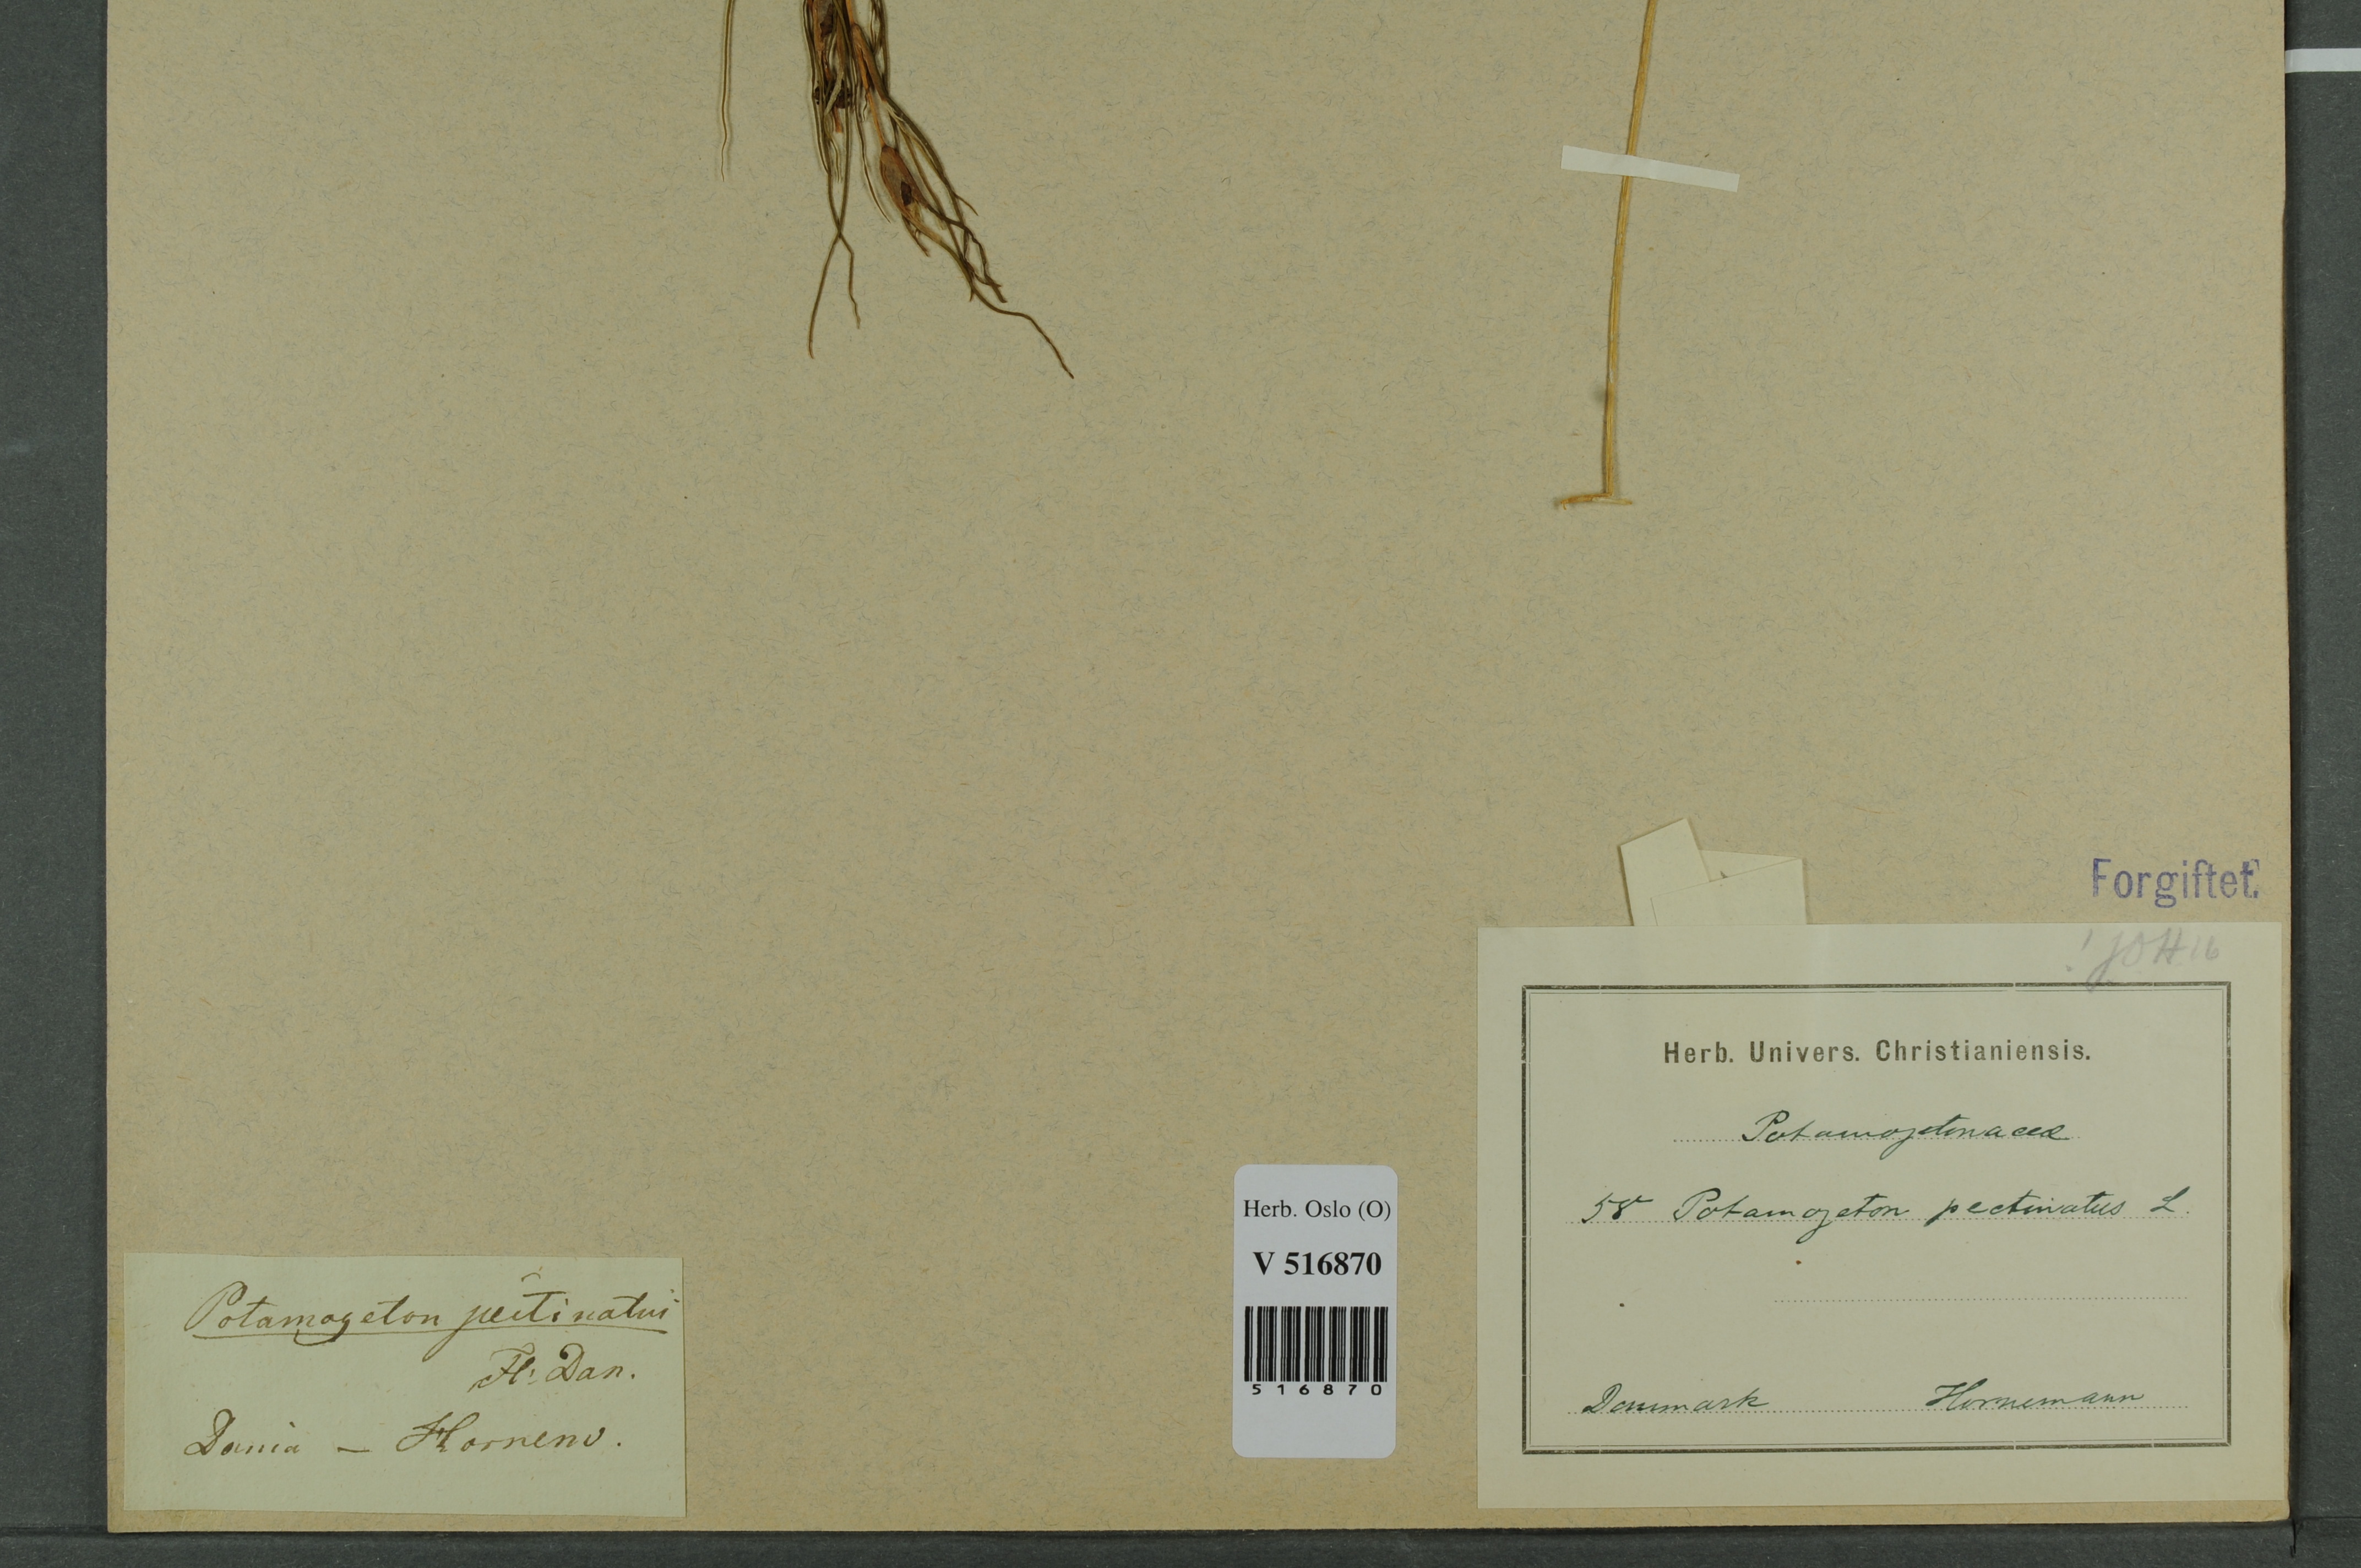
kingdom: Plantae
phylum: Tracheophyta
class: Liliopsida
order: Alismatales
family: Potamogetonaceae
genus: Stuckenia
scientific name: Stuckenia pectinata
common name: Sago pondweed
